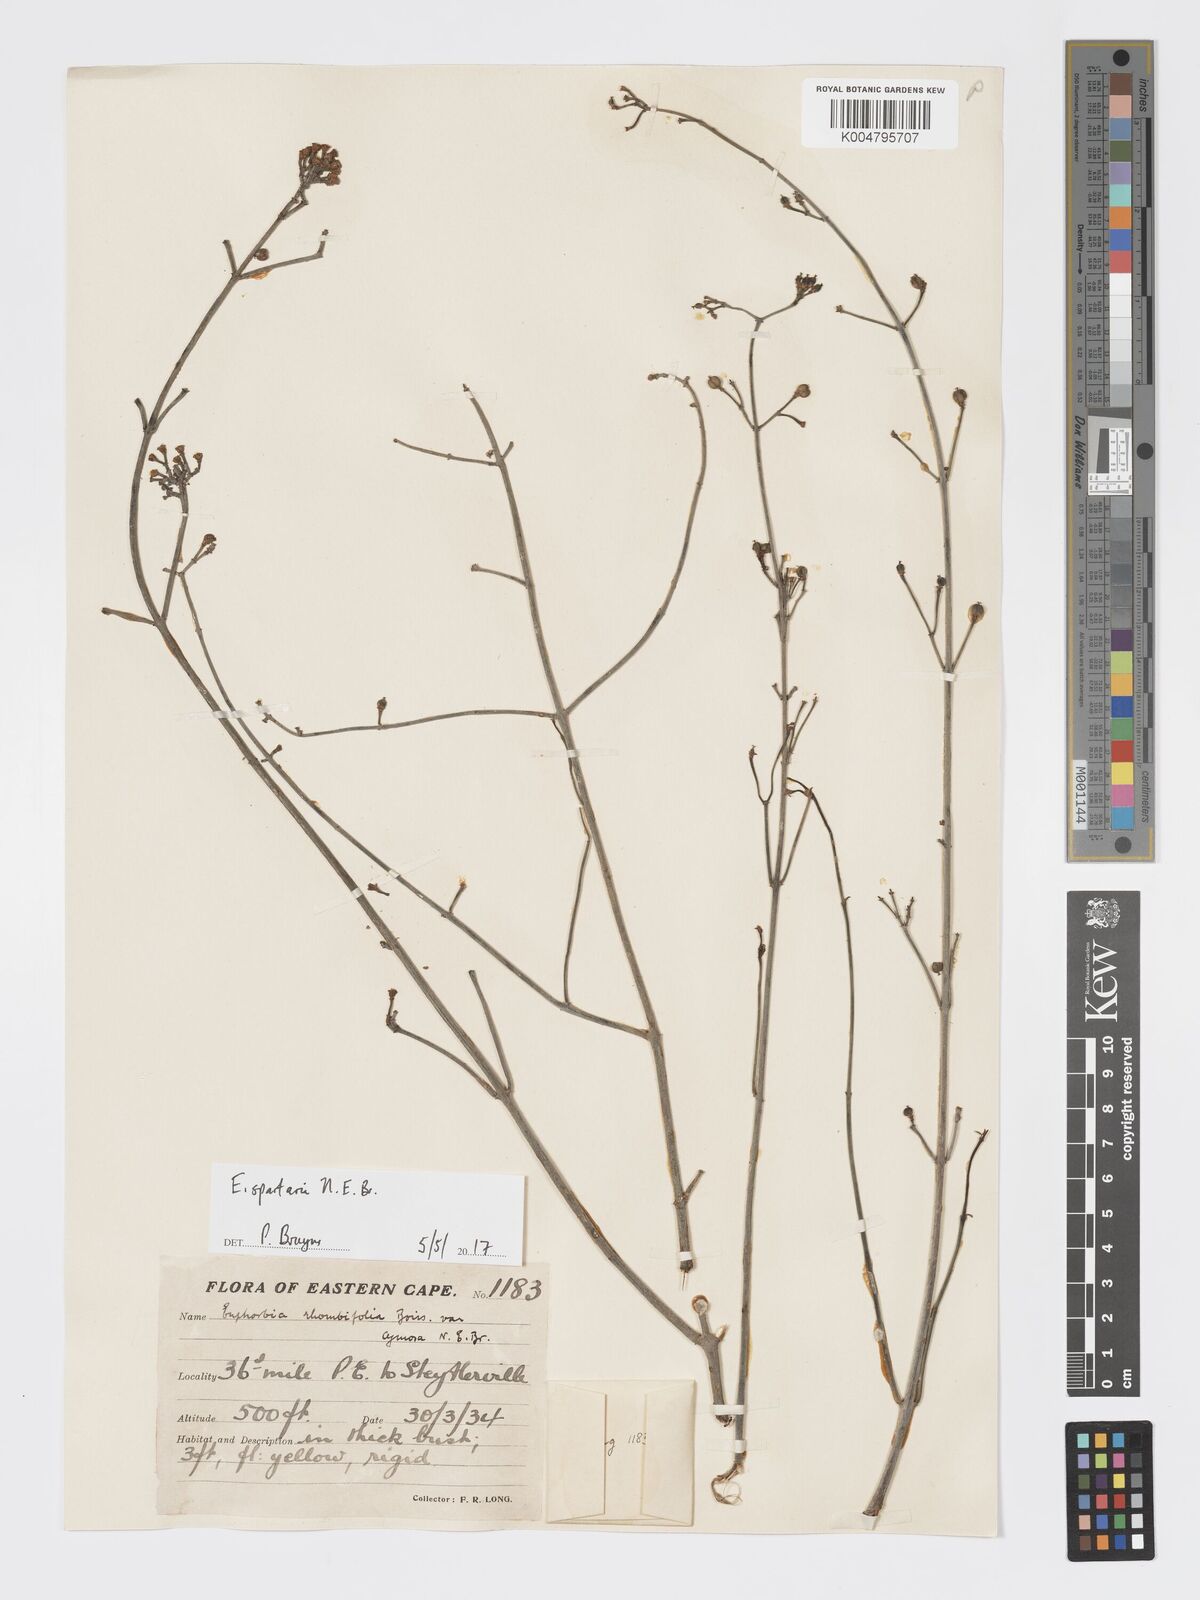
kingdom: Plantae
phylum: Tracheophyta
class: Magnoliopsida
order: Malpighiales
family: Euphorbiaceae
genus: Euphorbia
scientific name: Euphorbia spartaria
